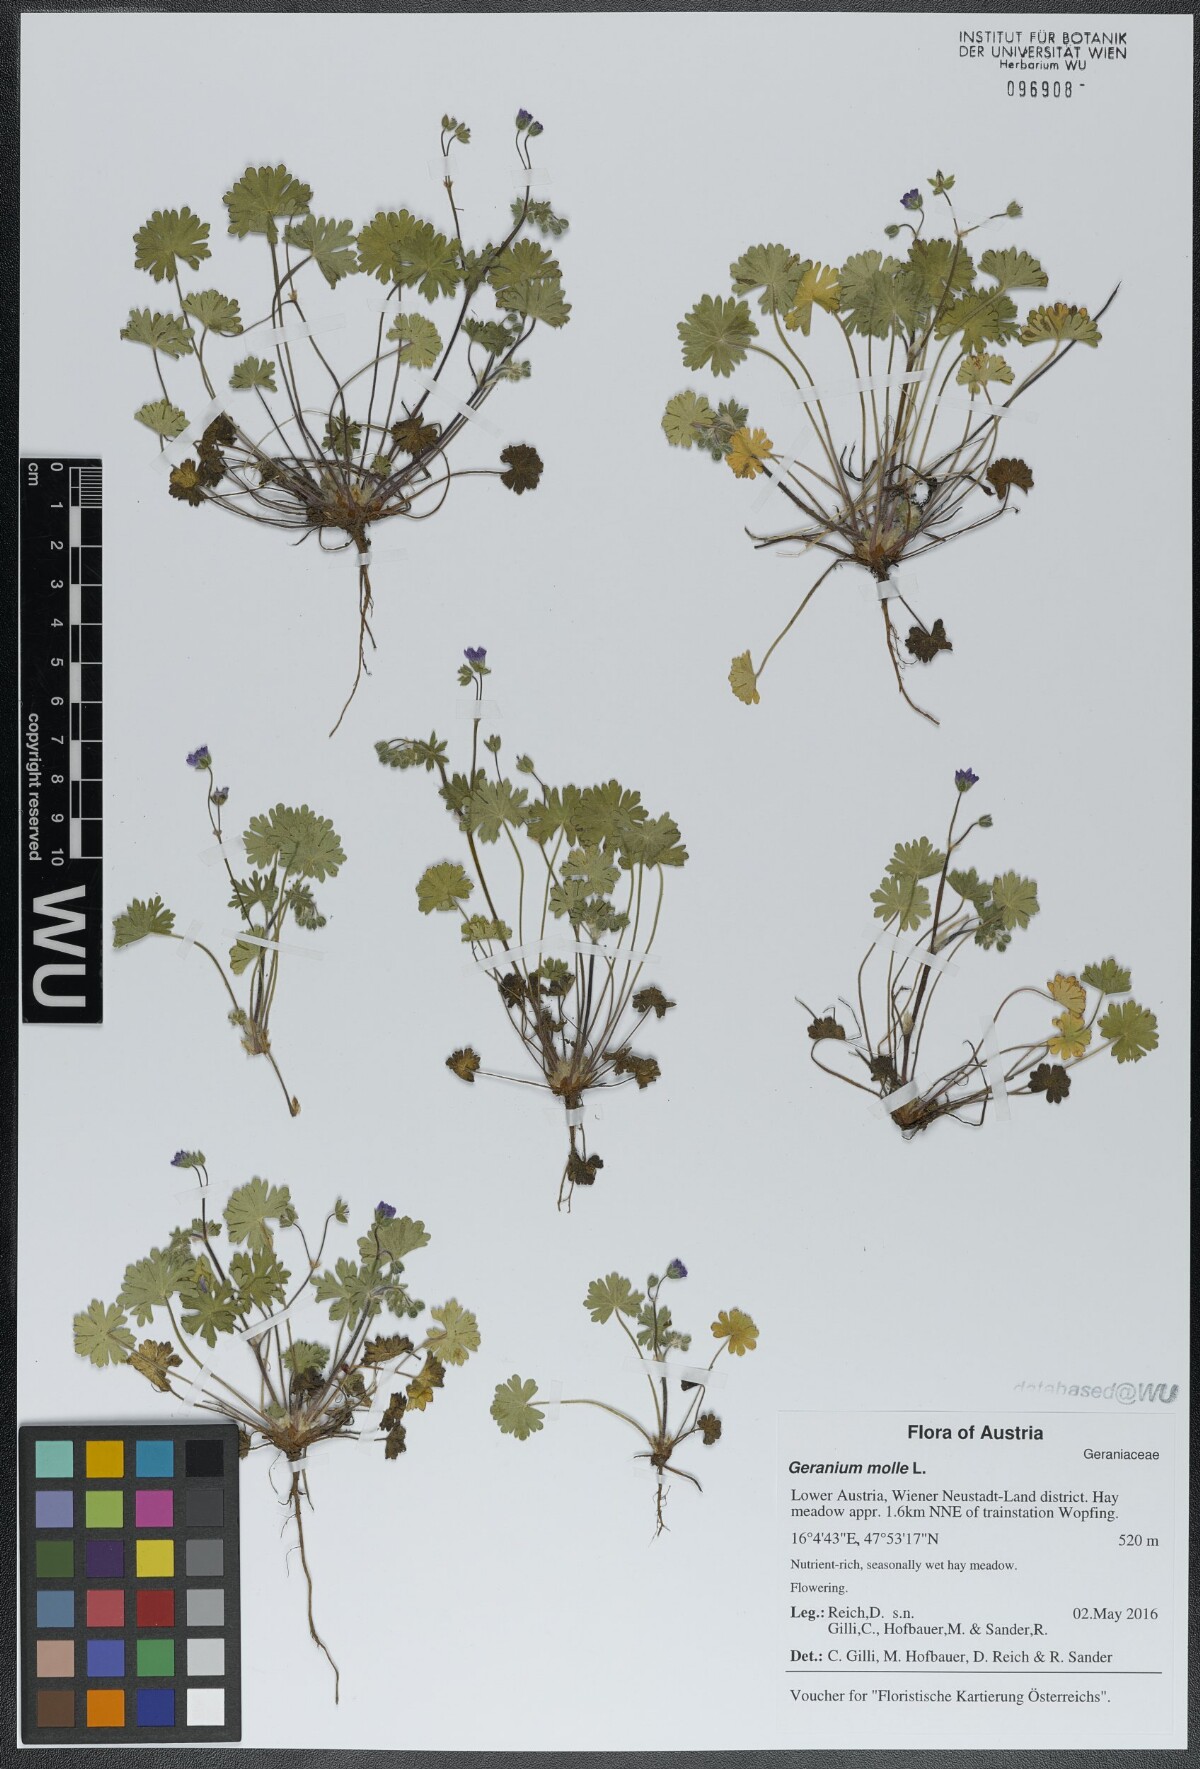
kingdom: Plantae
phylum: Tracheophyta
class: Magnoliopsida
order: Geraniales
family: Geraniaceae
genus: Geranium
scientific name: Geranium molle
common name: Dove's-foot crane's-bill
